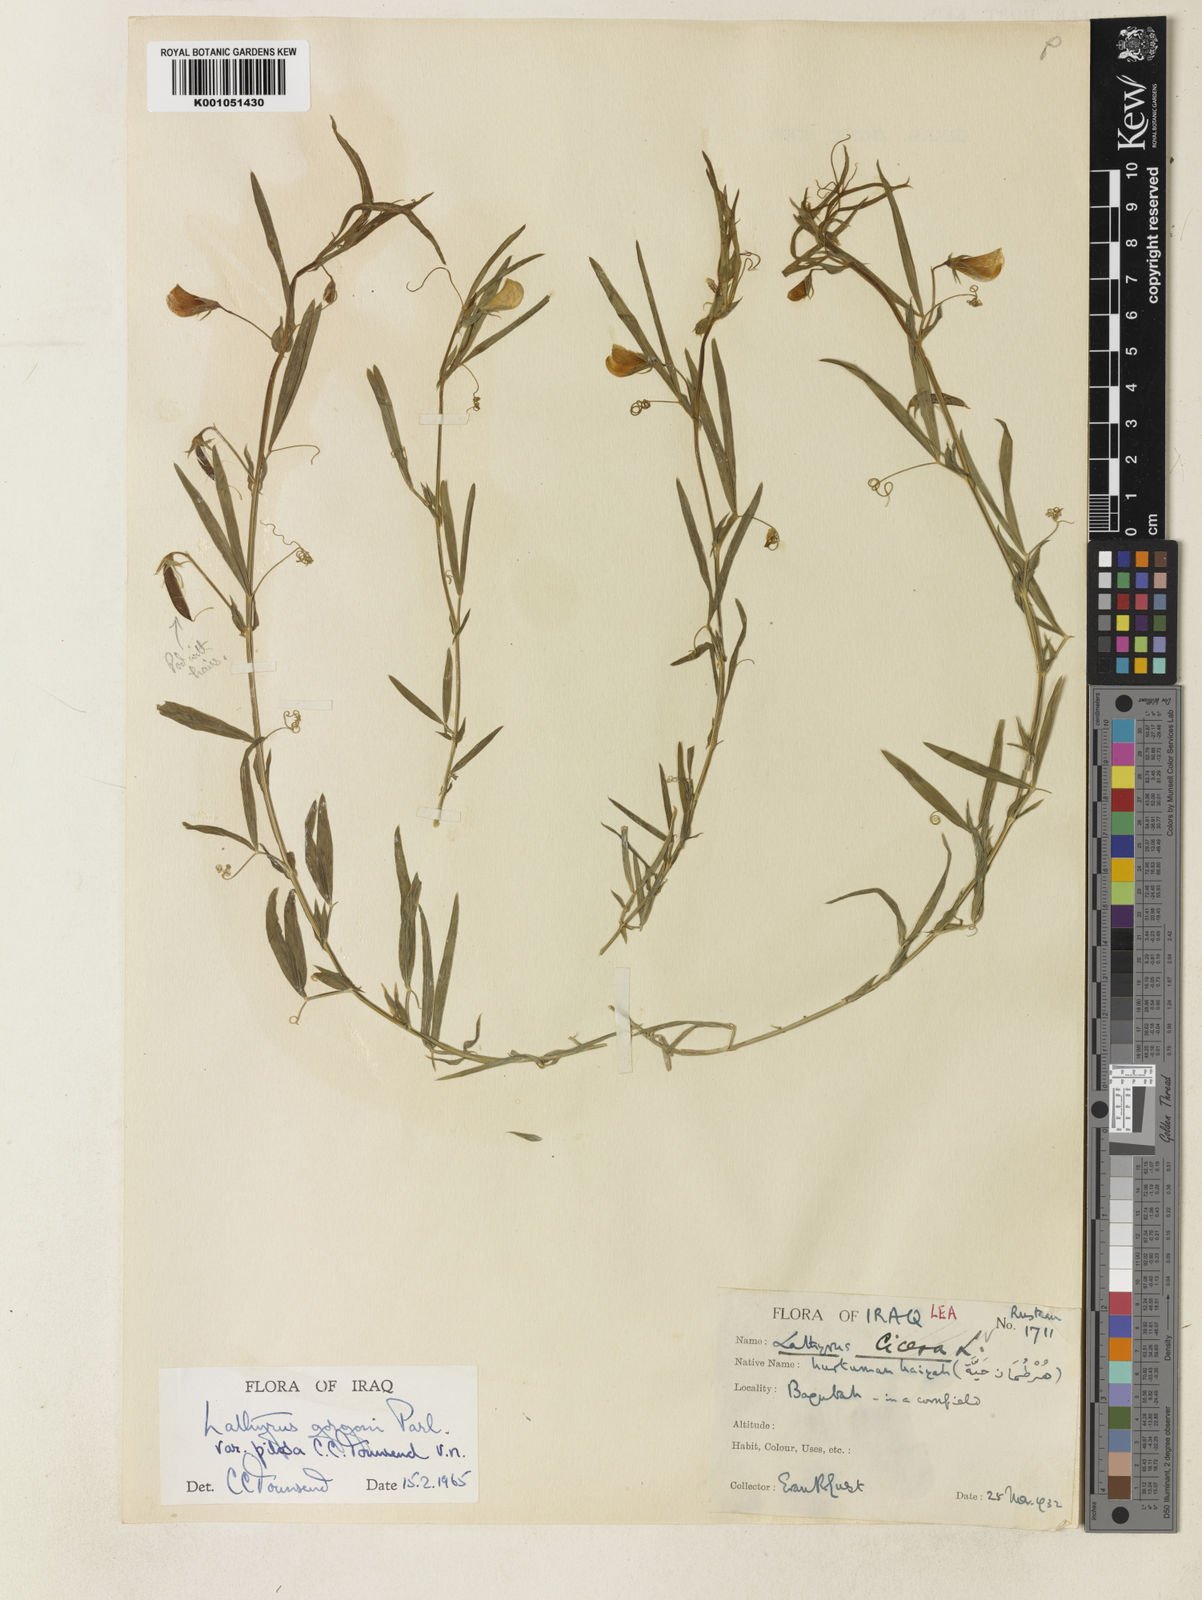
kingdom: Plantae
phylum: Tracheophyta
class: Magnoliopsida
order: Fabales
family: Fabaceae
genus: Lathyrus
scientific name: Lathyrus
